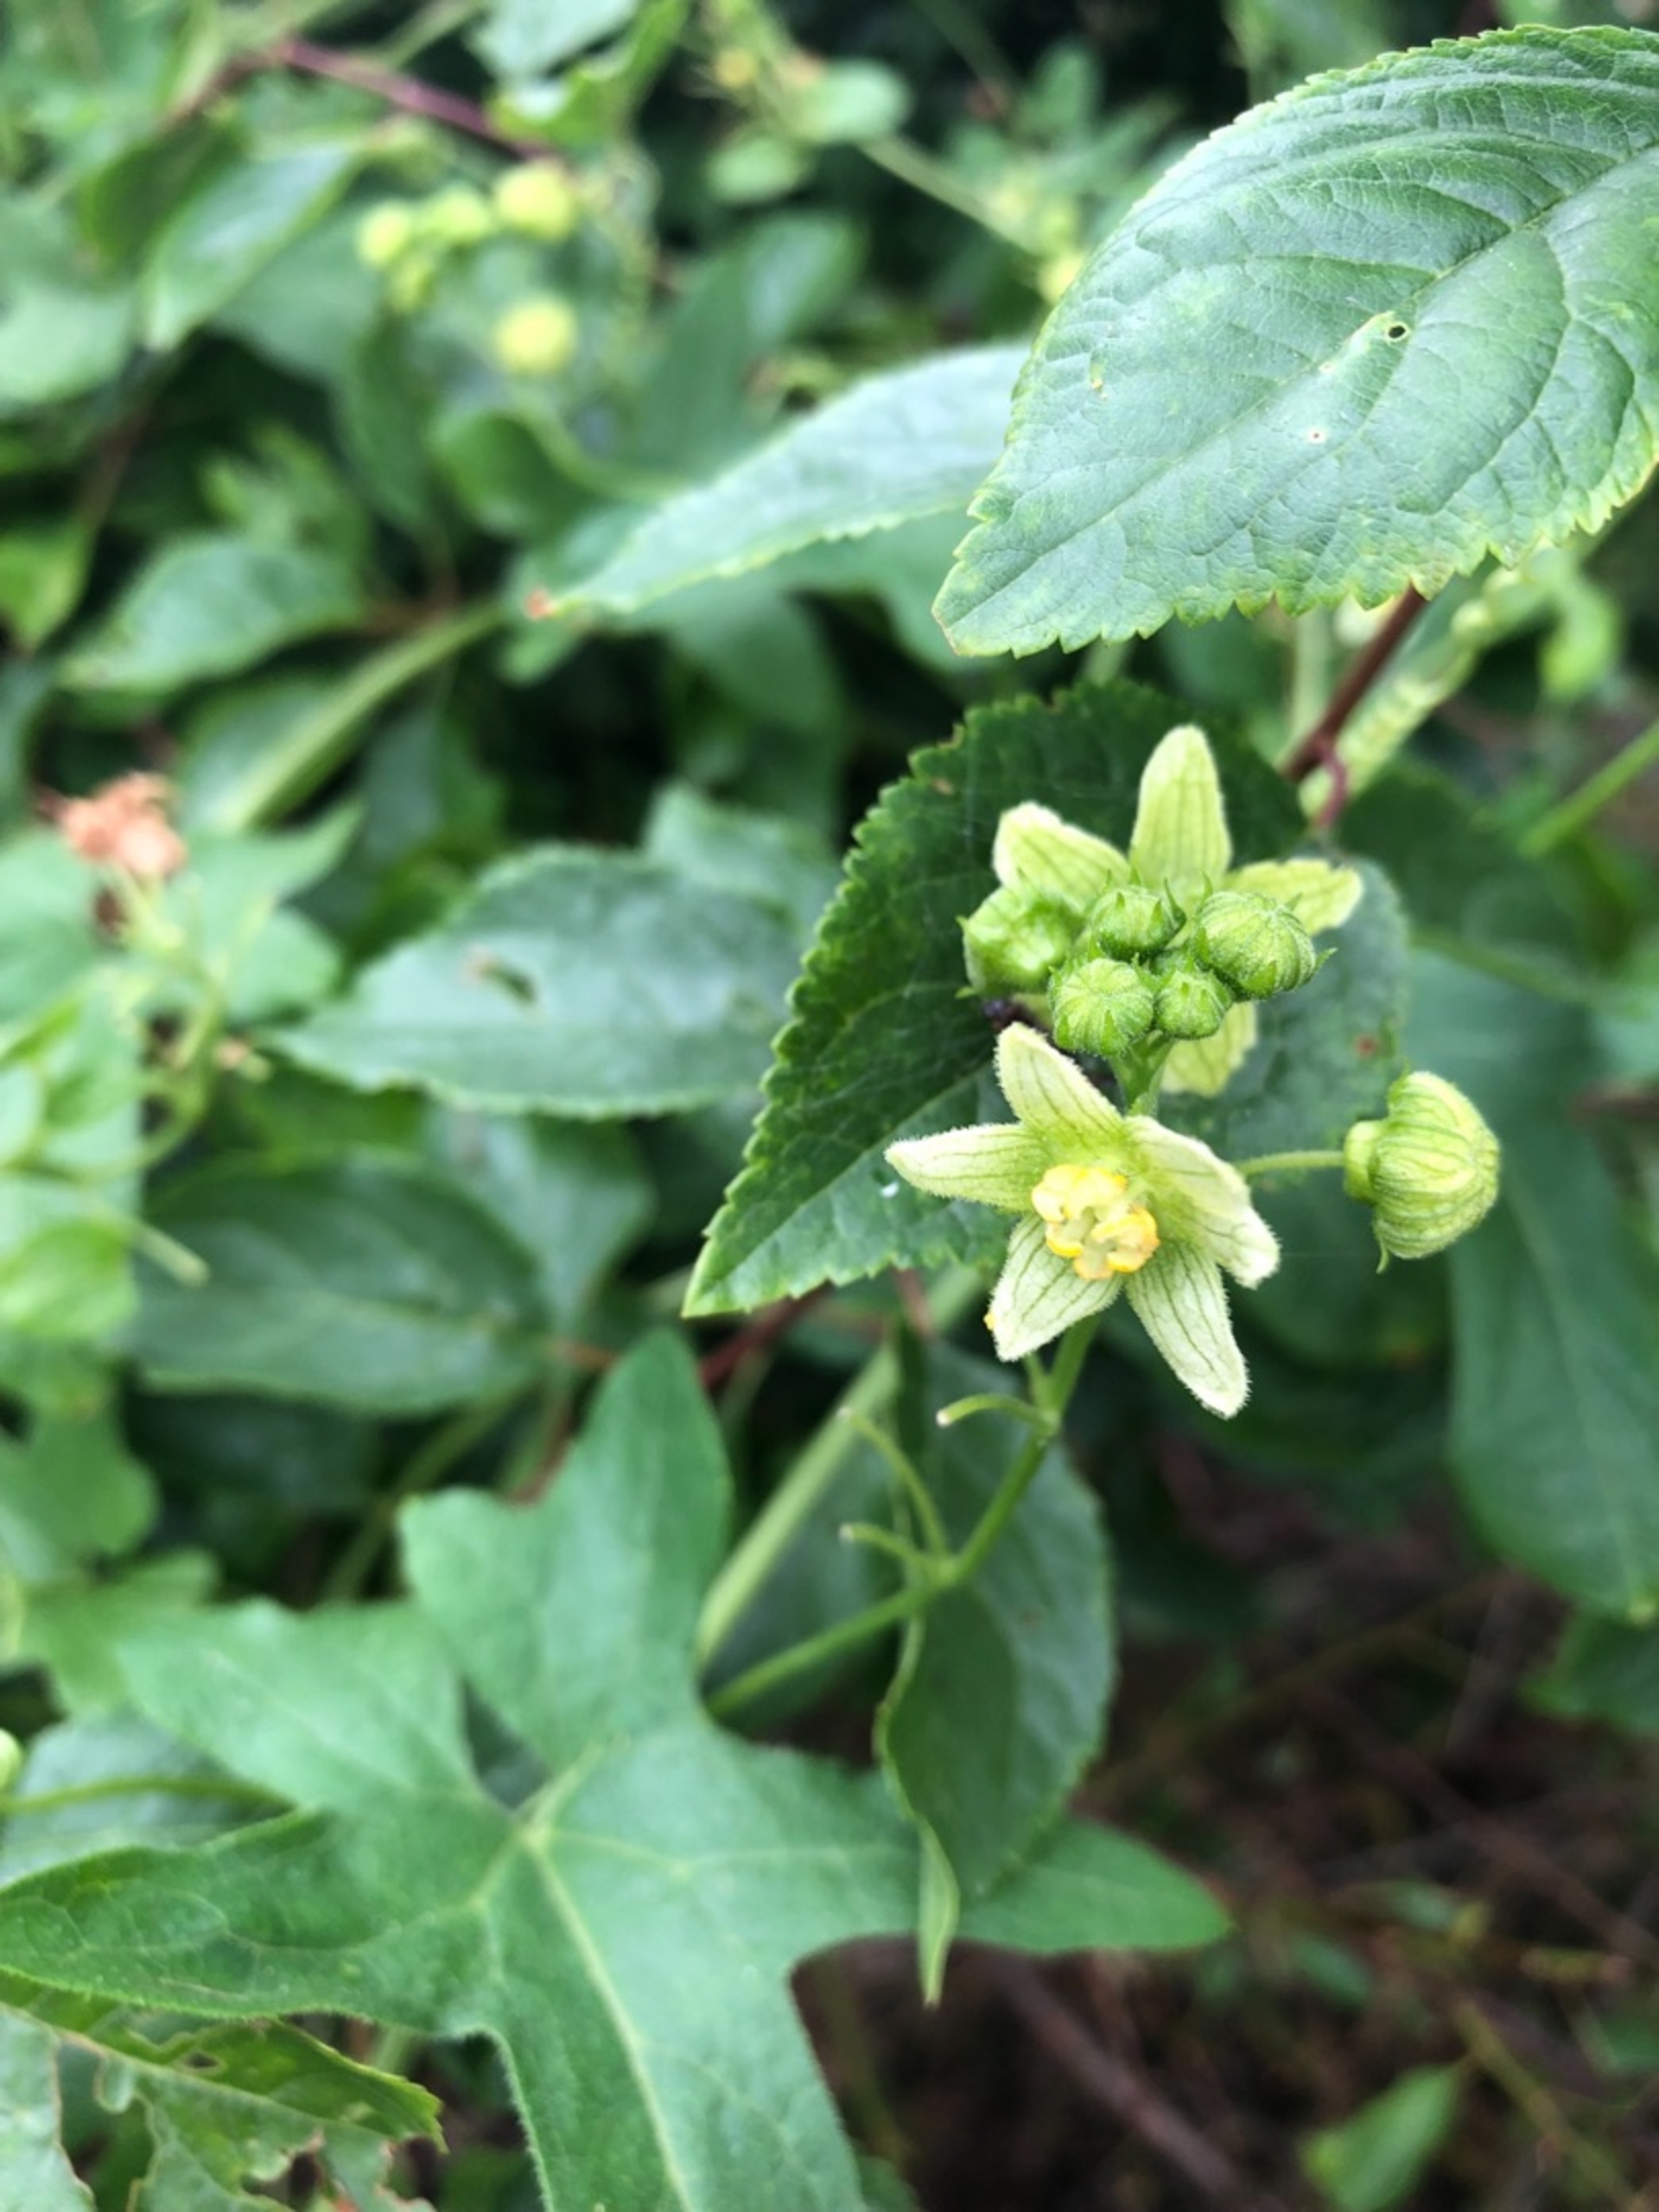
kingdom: Plantae
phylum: Tracheophyta
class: Magnoliopsida
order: Cucurbitales
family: Cucurbitaceae
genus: Bryonia
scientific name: Bryonia dioica
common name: Tvebo galdebær
